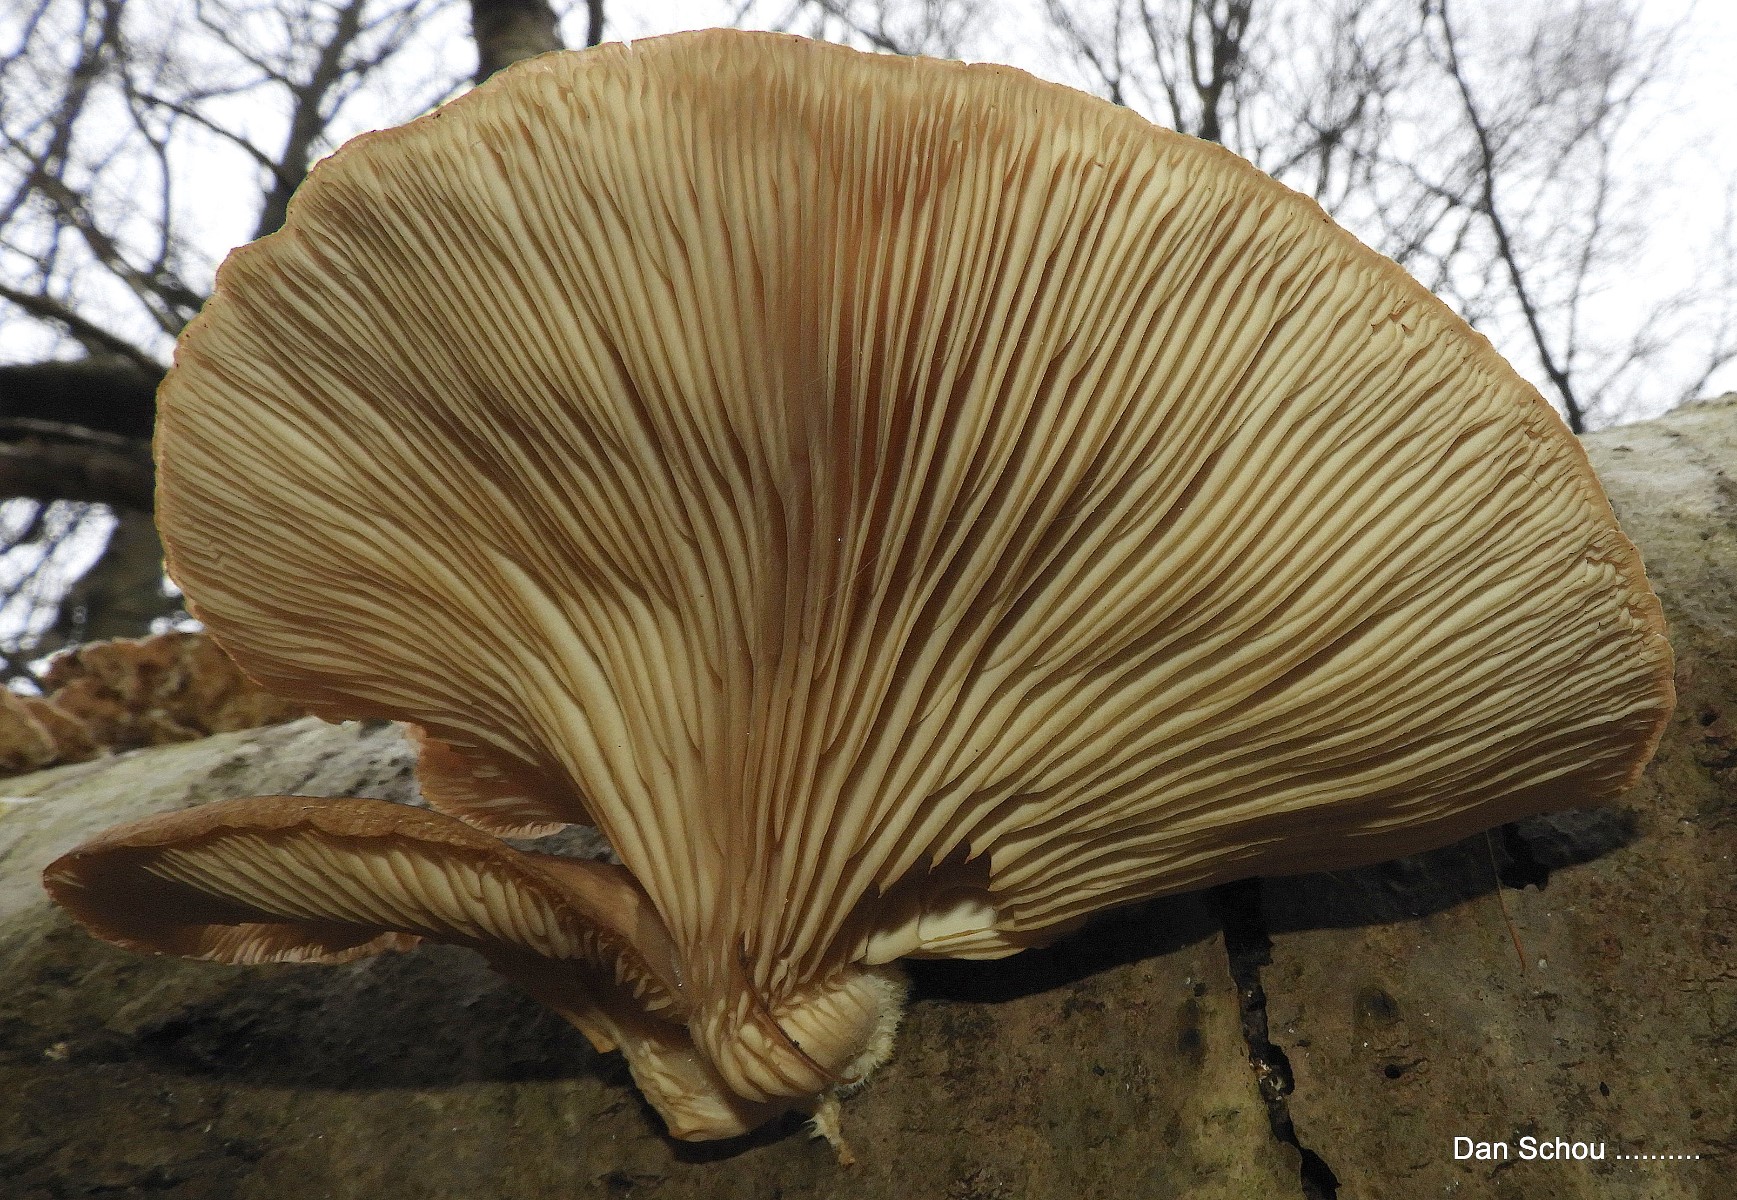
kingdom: Fungi
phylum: Basidiomycota
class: Agaricomycetes
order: Agaricales
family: Pleurotaceae
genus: Pleurotus
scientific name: Pleurotus ostreatus
